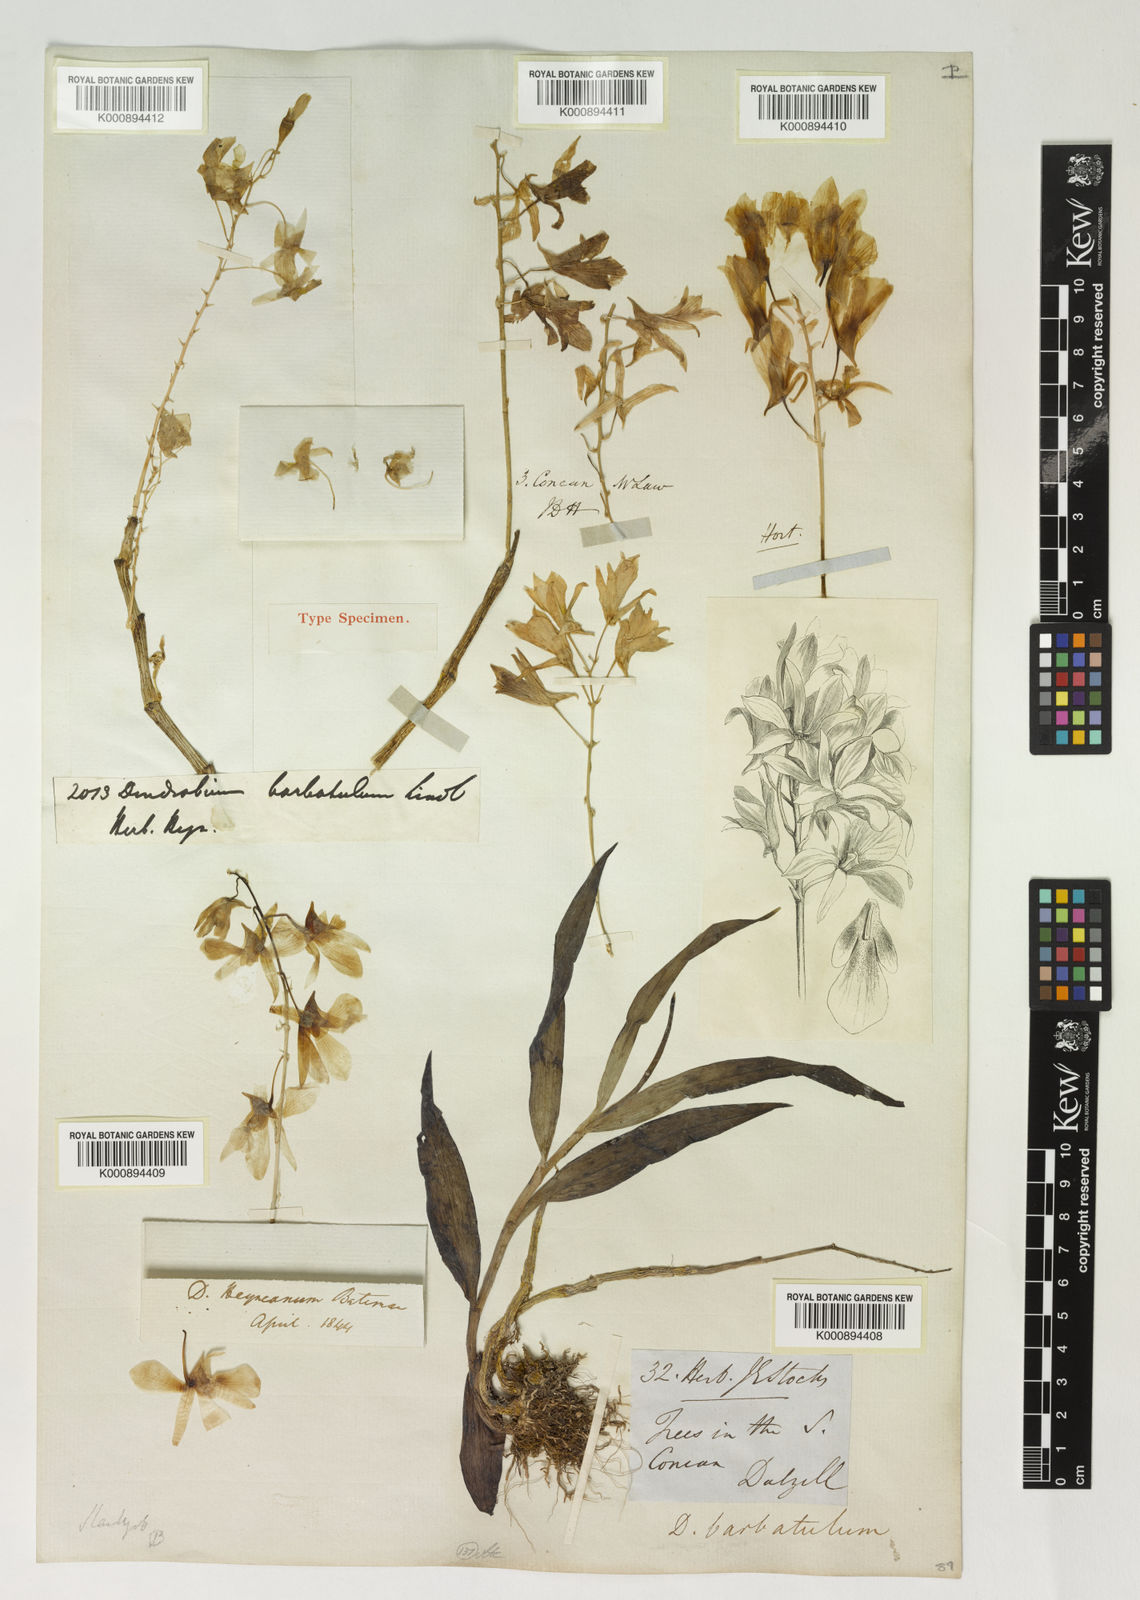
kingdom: Plantae
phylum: Tracheophyta
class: Liliopsida
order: Asparagales
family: Orchidaceae
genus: Dendrobium
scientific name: Dendrobium barbatulum
